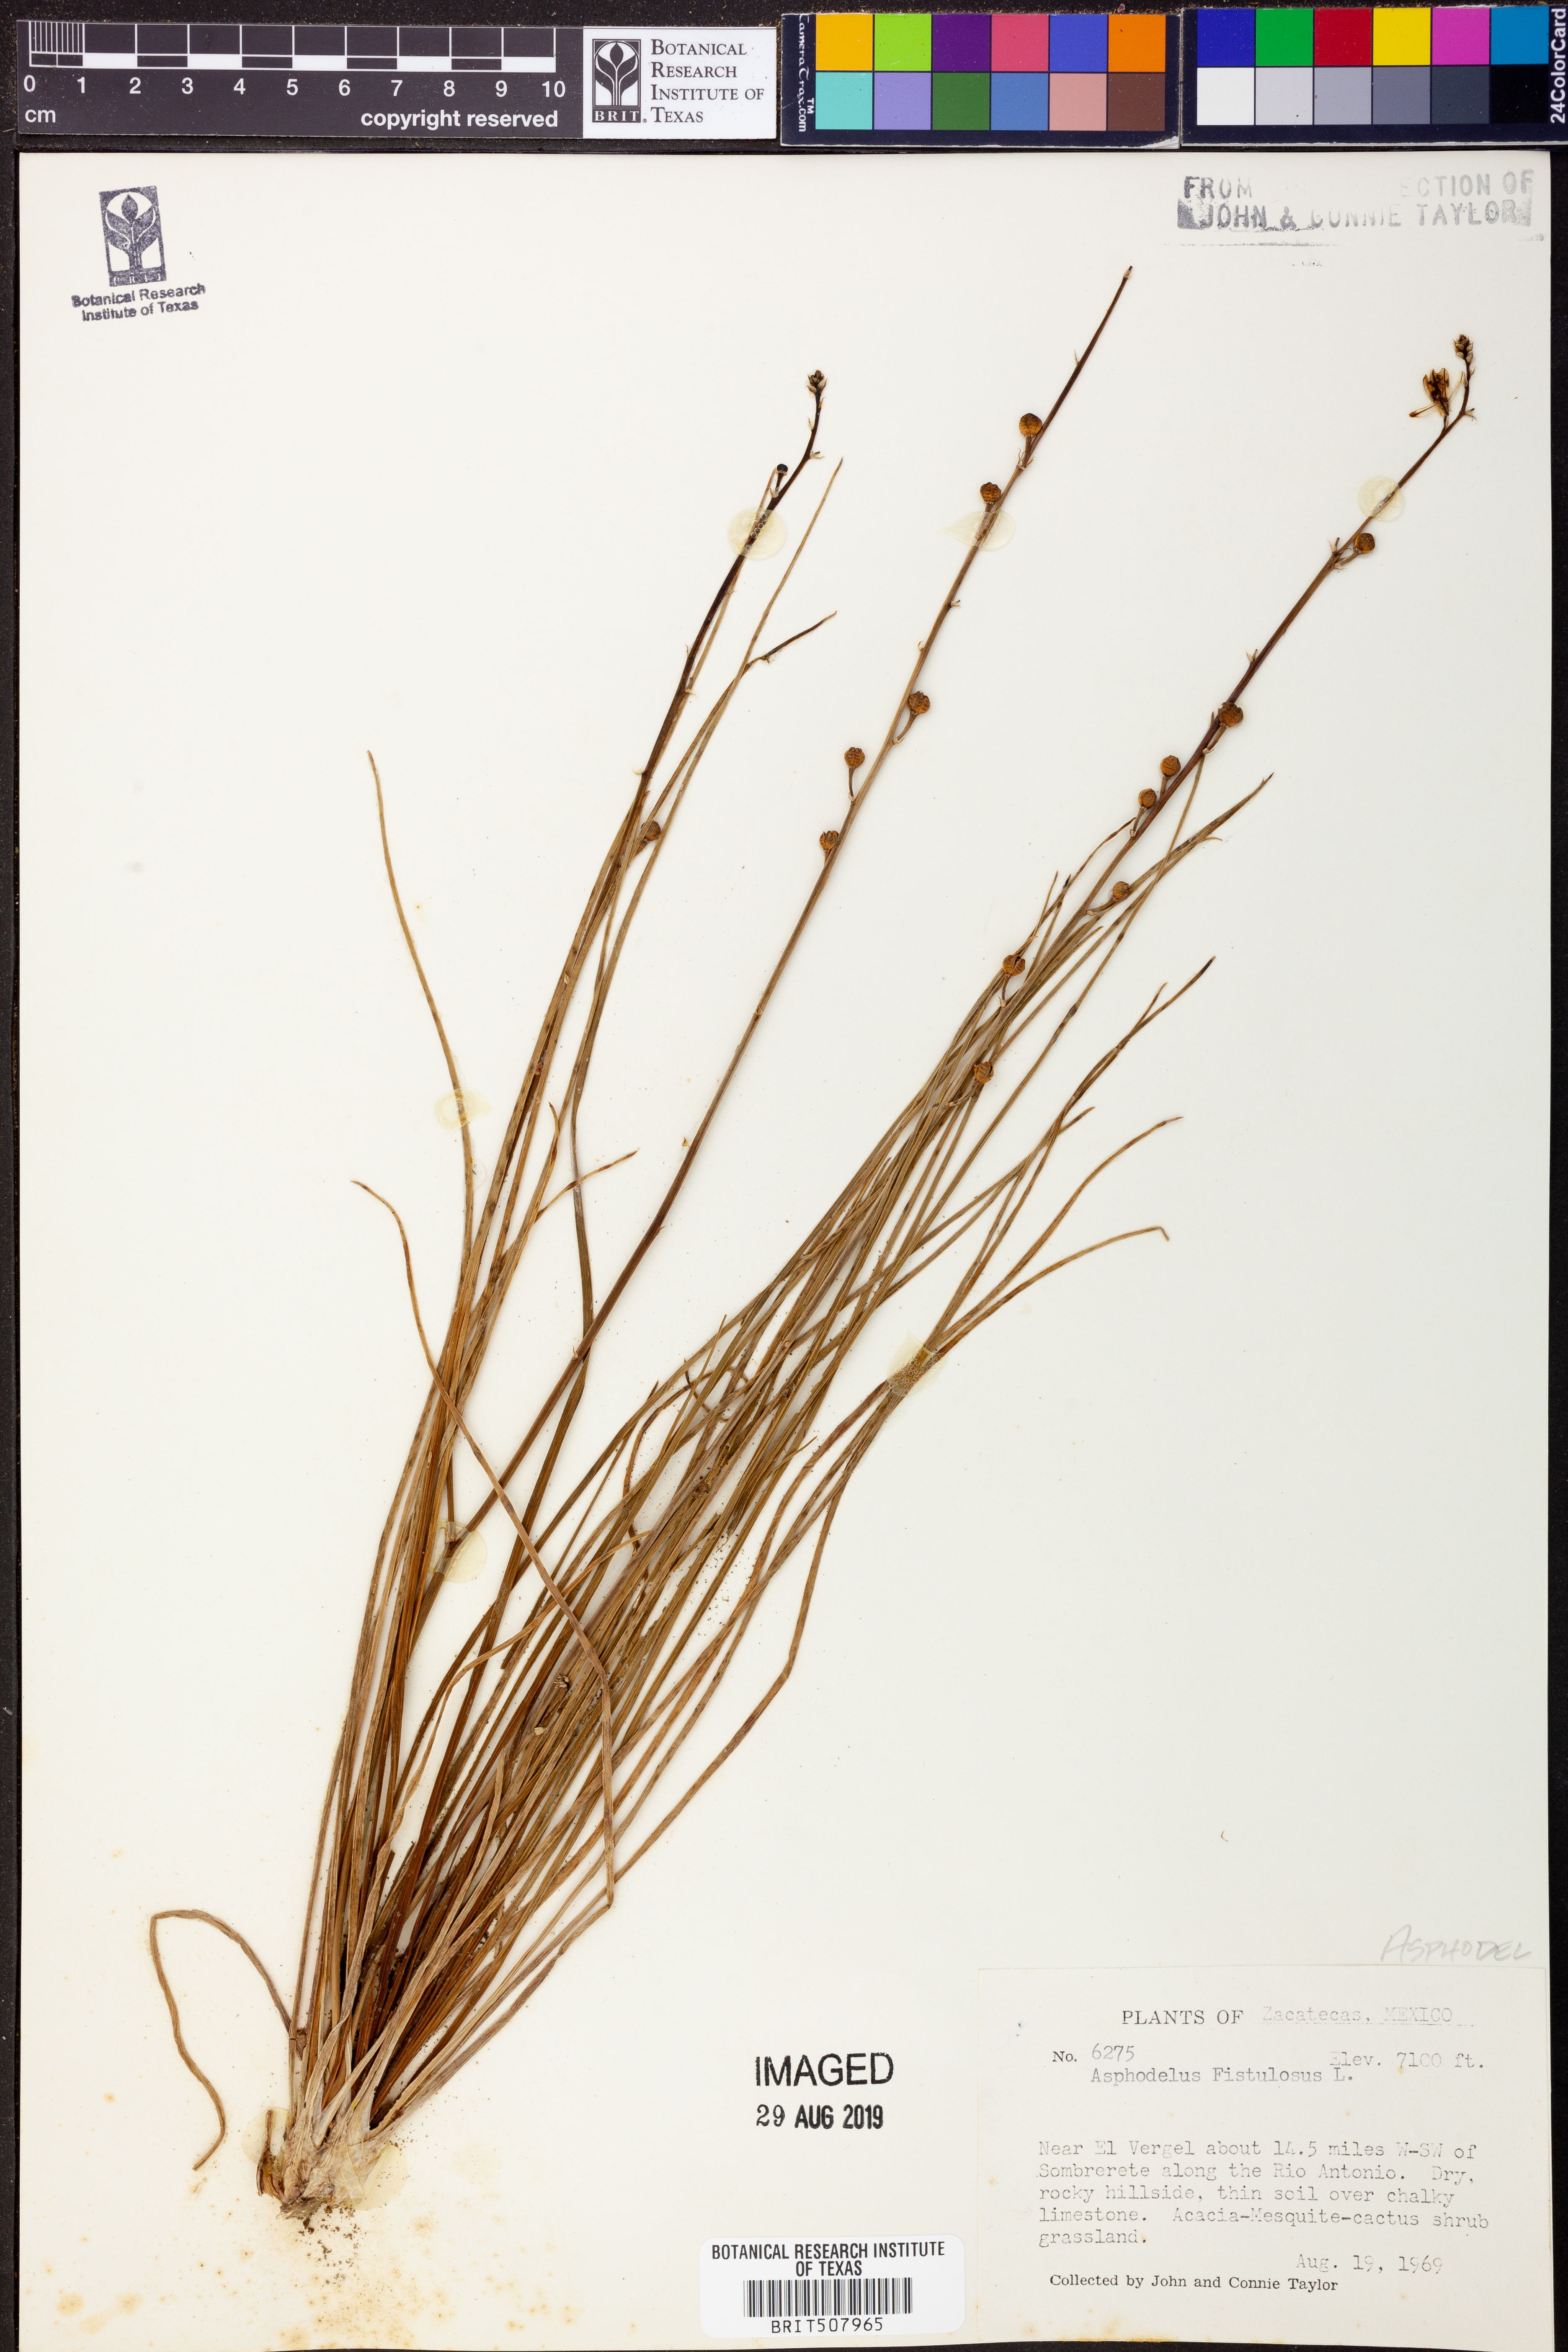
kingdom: Plantae
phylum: Tracheophyta
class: Liliopsida
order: Asparagales
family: Asphodelaceae
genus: Asphodelus
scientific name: Asphodelus fistulosus
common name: Onionweed
